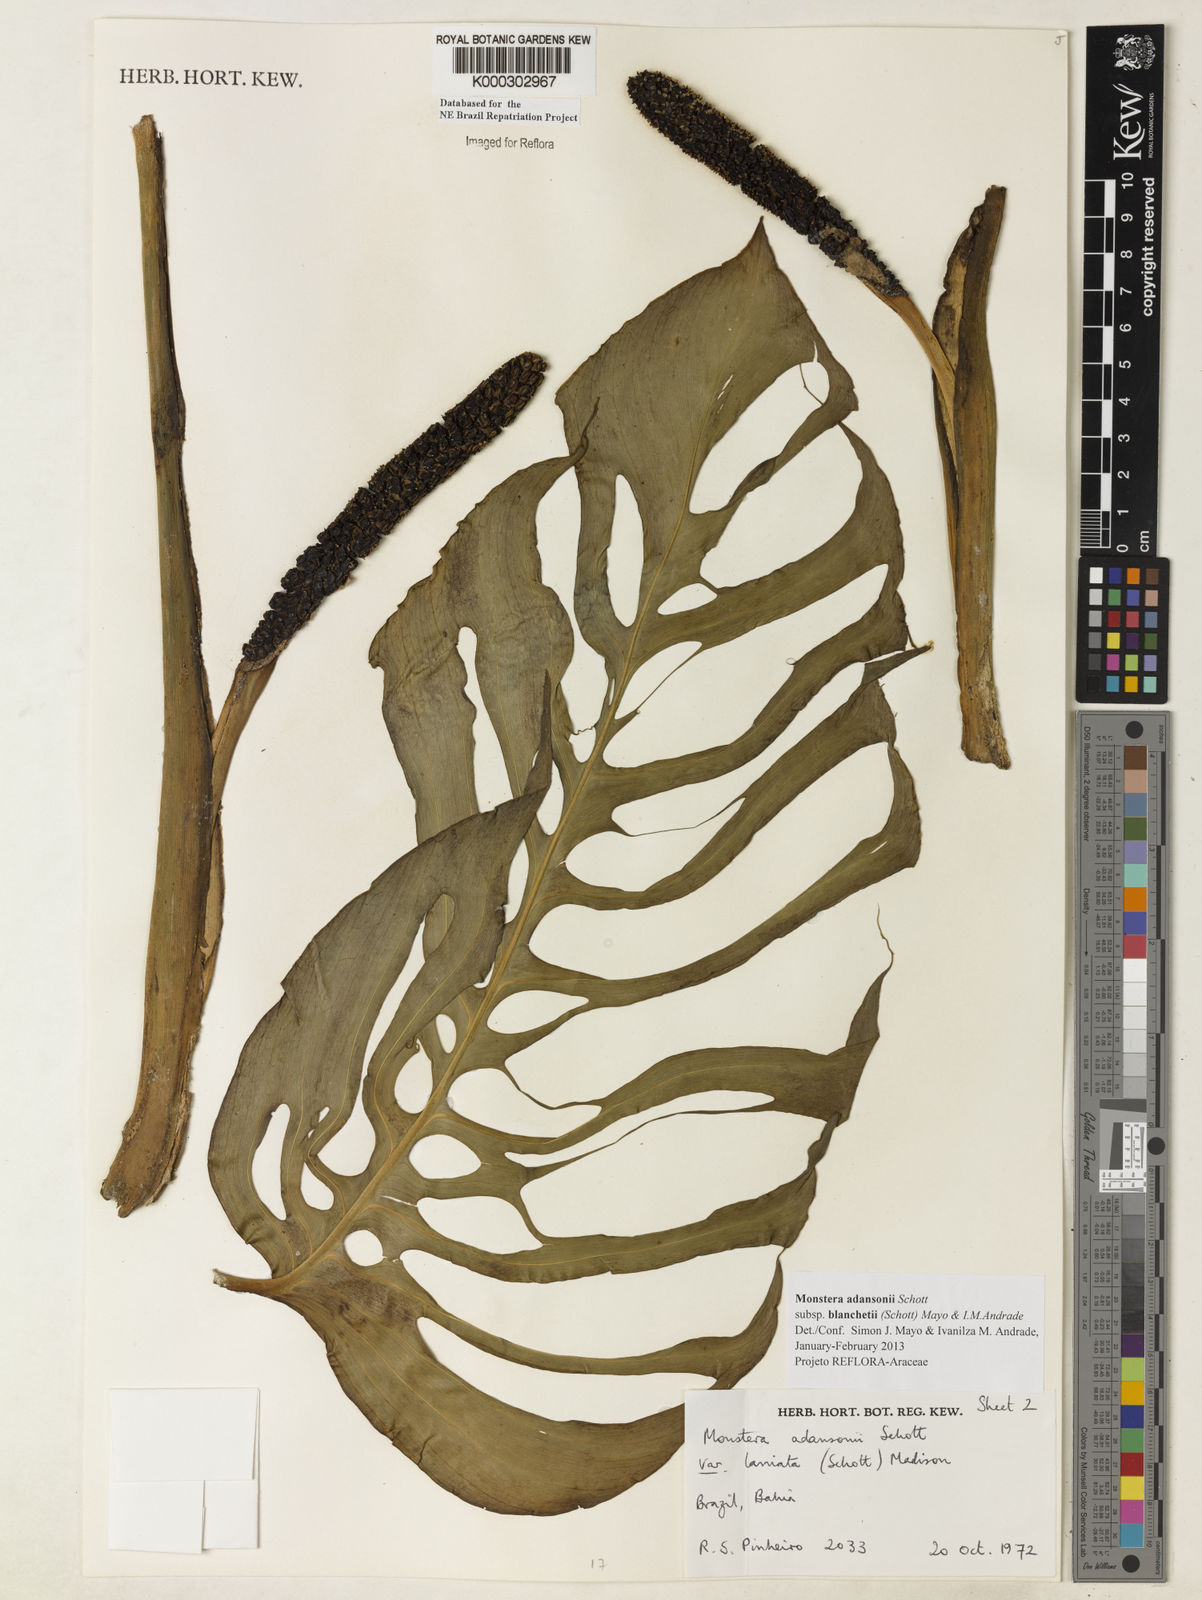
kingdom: Plantae
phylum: Tracheophyta
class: Liliopsida
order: Alismatales
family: Araceae
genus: Monstera
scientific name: Monstera adansonii
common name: Tarovine
